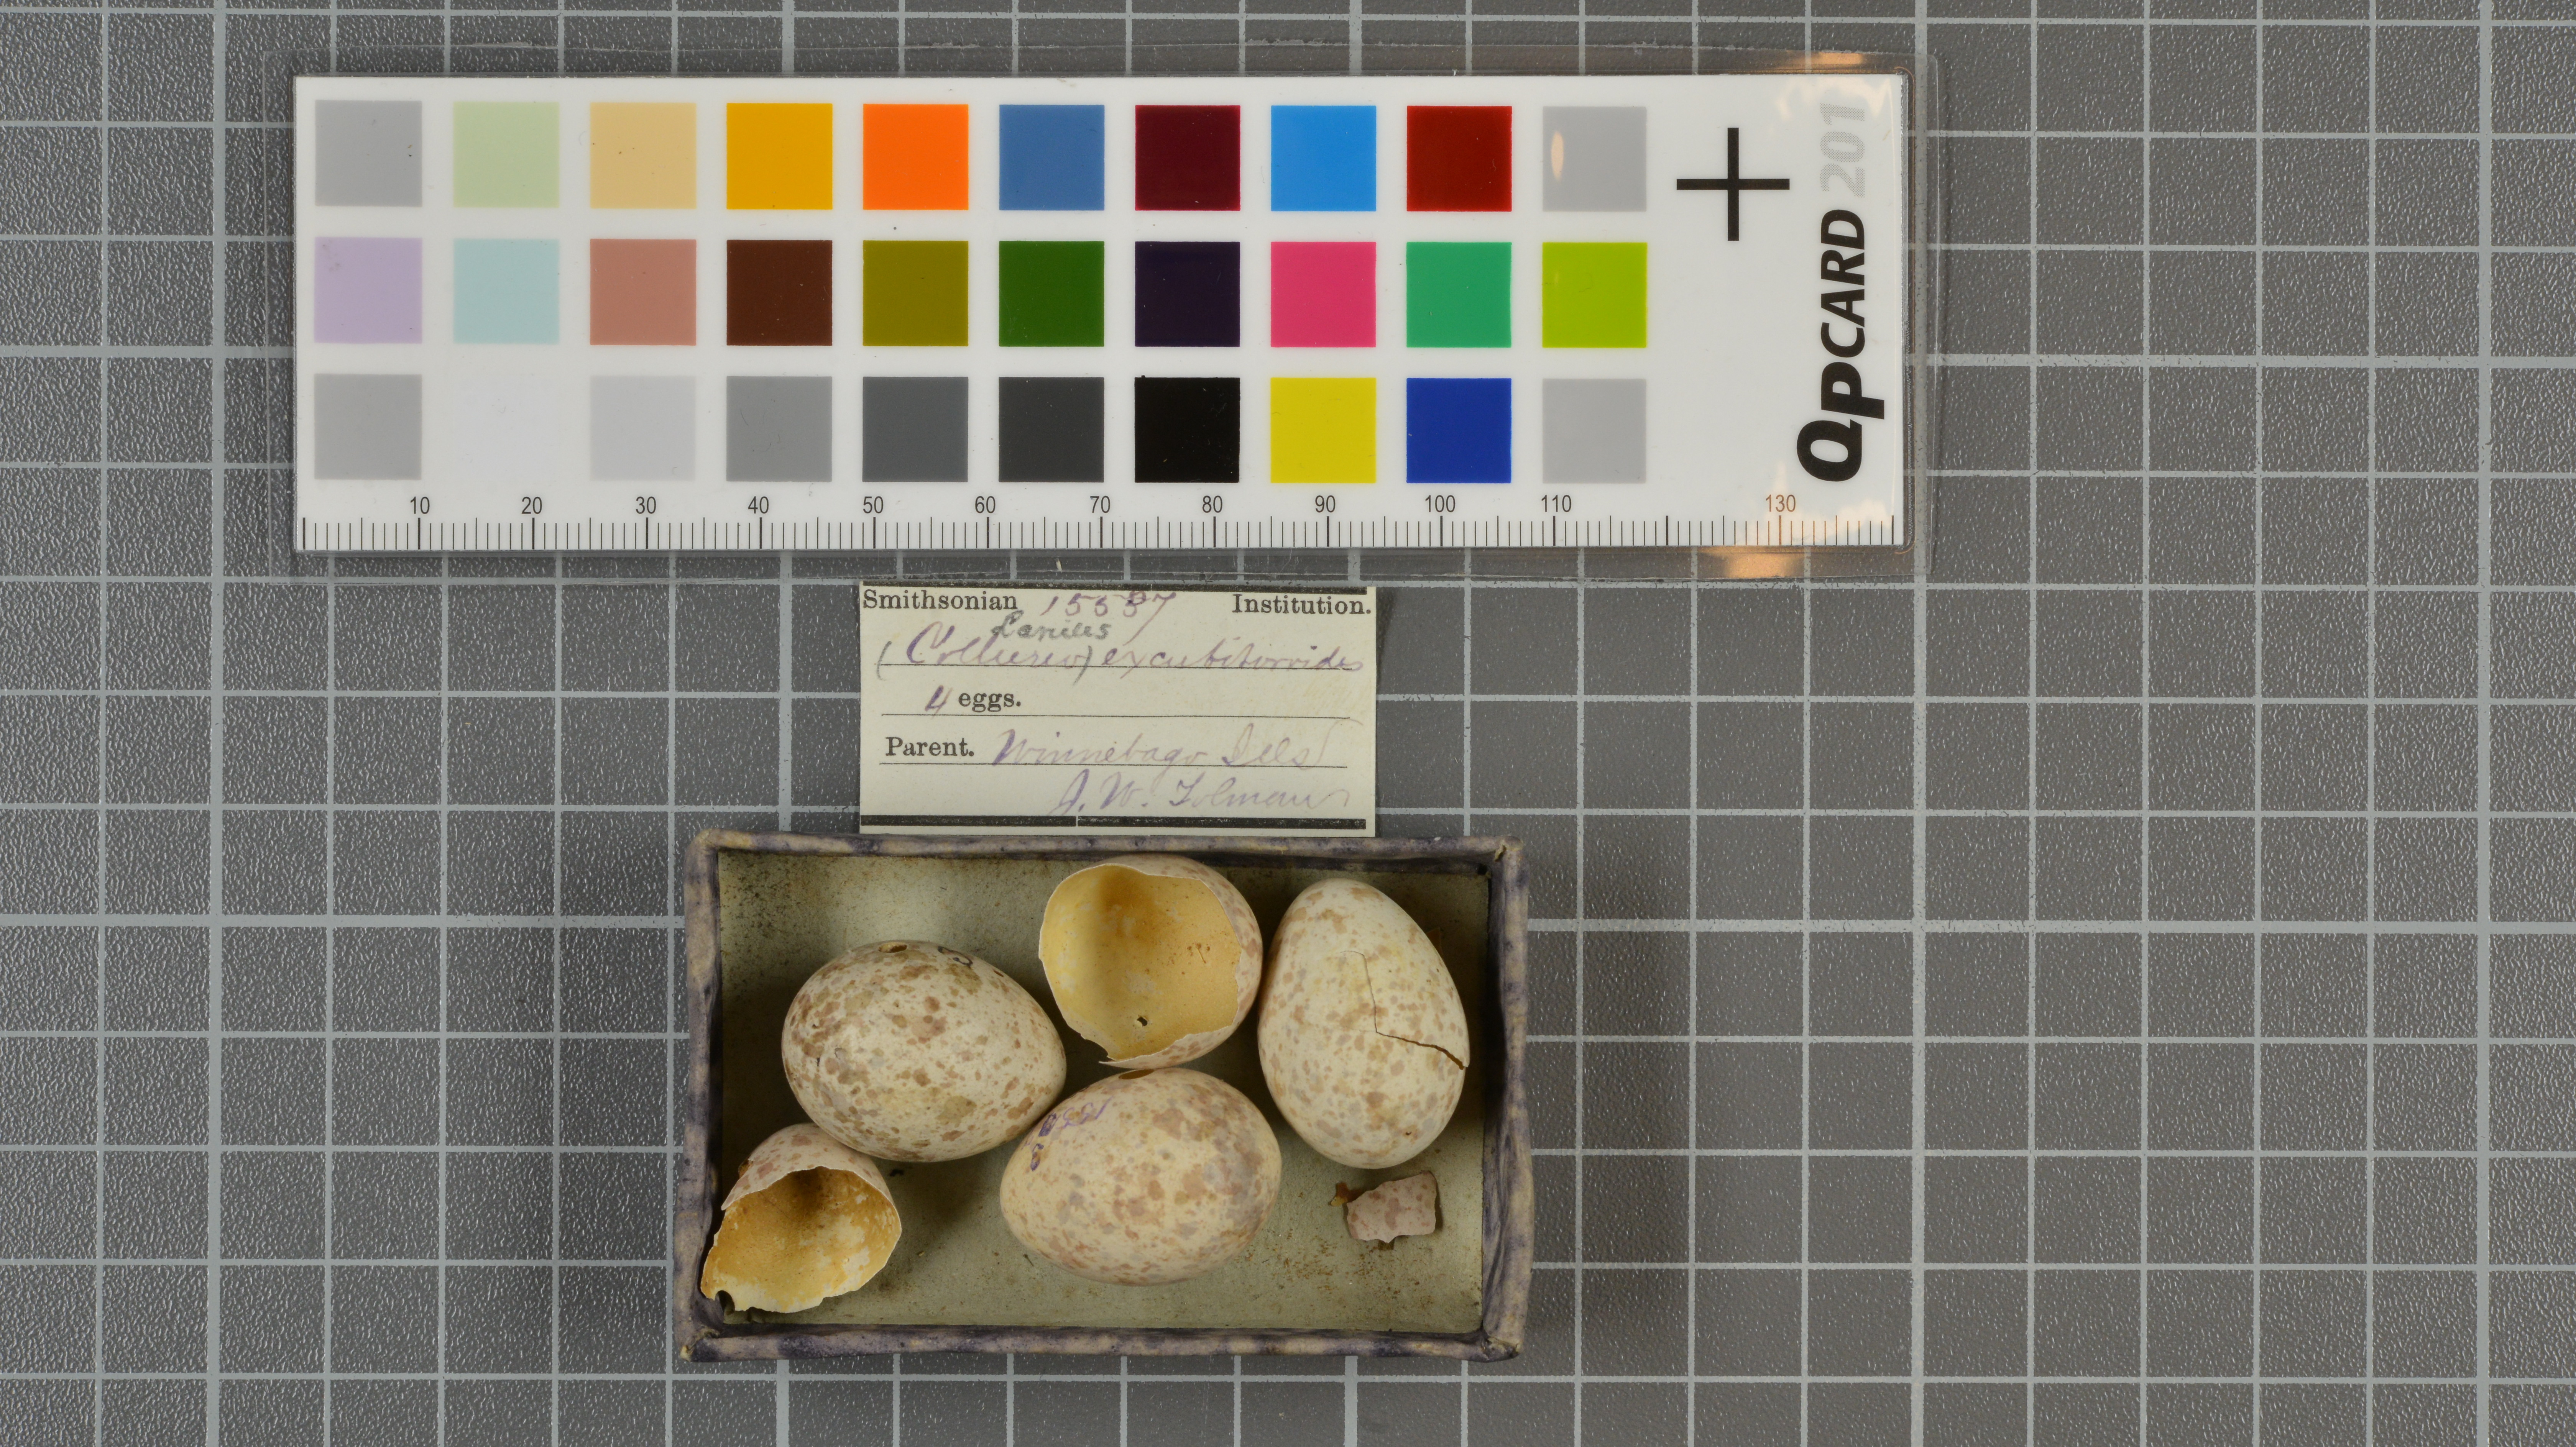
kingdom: Animalia
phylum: Chordata
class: Aves
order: Passeriformes
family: Laniidae
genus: Lanius
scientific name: Lanius excubitoroides
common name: Grey-backed fiscal
